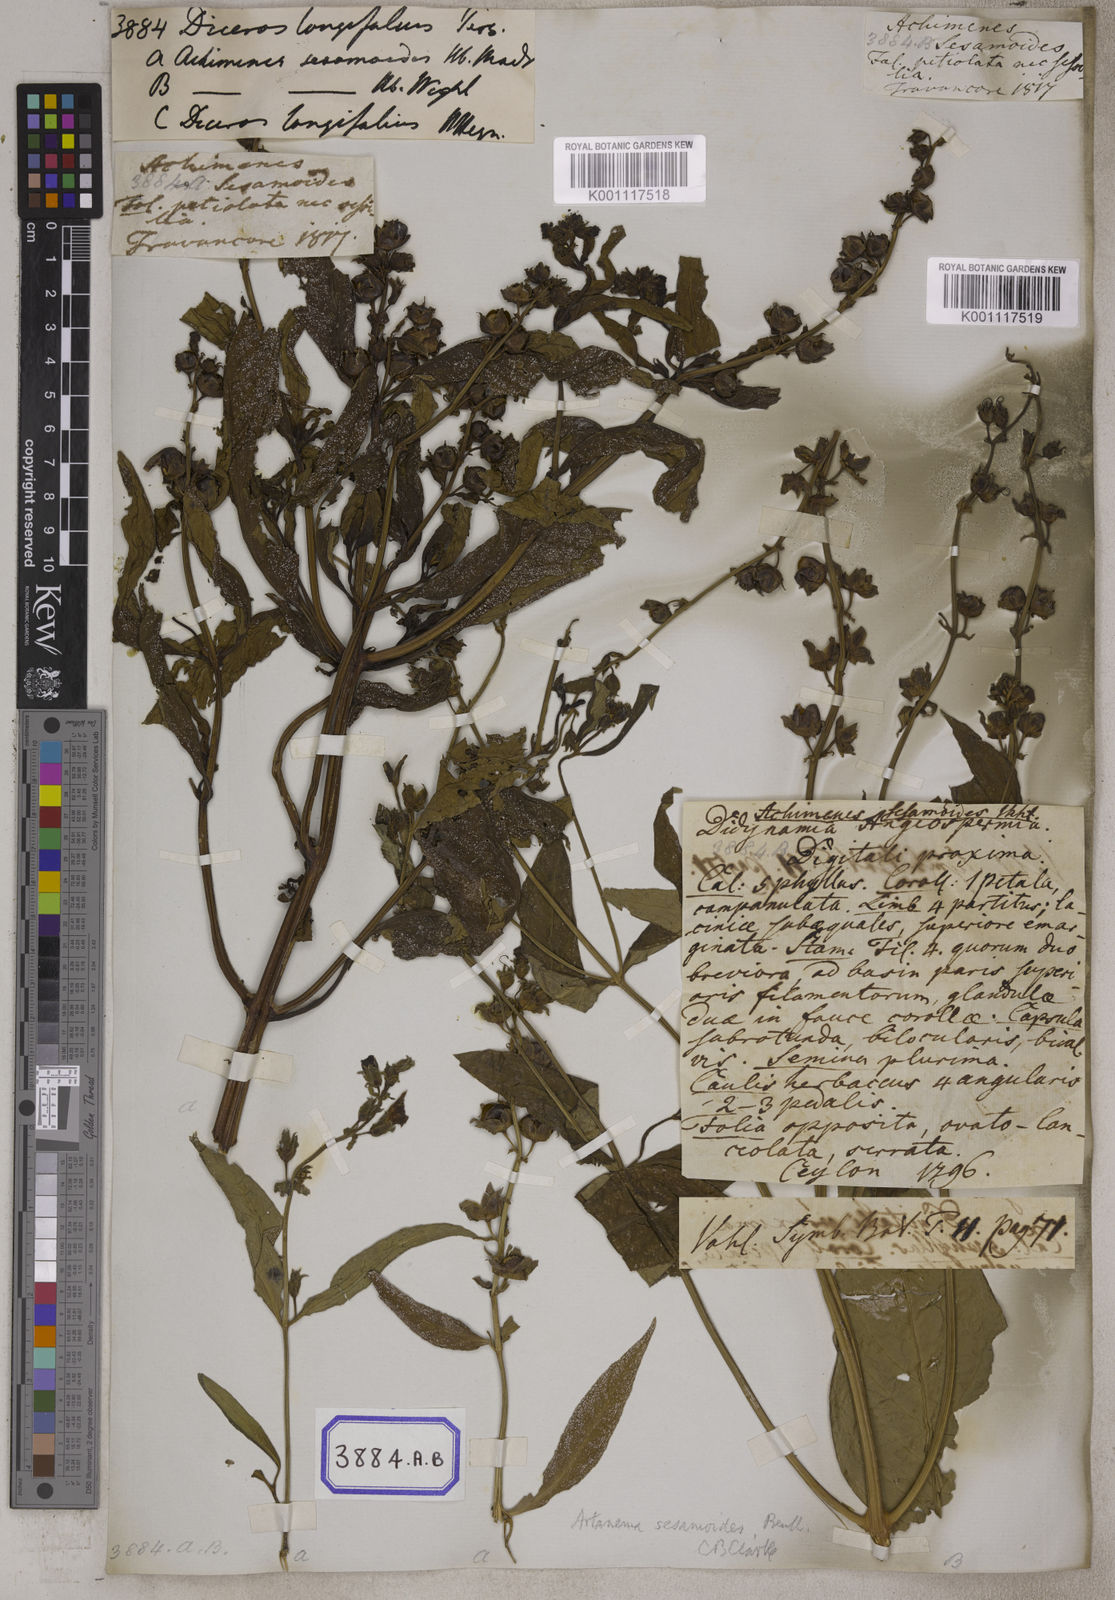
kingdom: Plantae
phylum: Tracheophyta
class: Magnoliopsida
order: Lamiales
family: Linderniaceae
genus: Artanema
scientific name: Artanema longifolium
